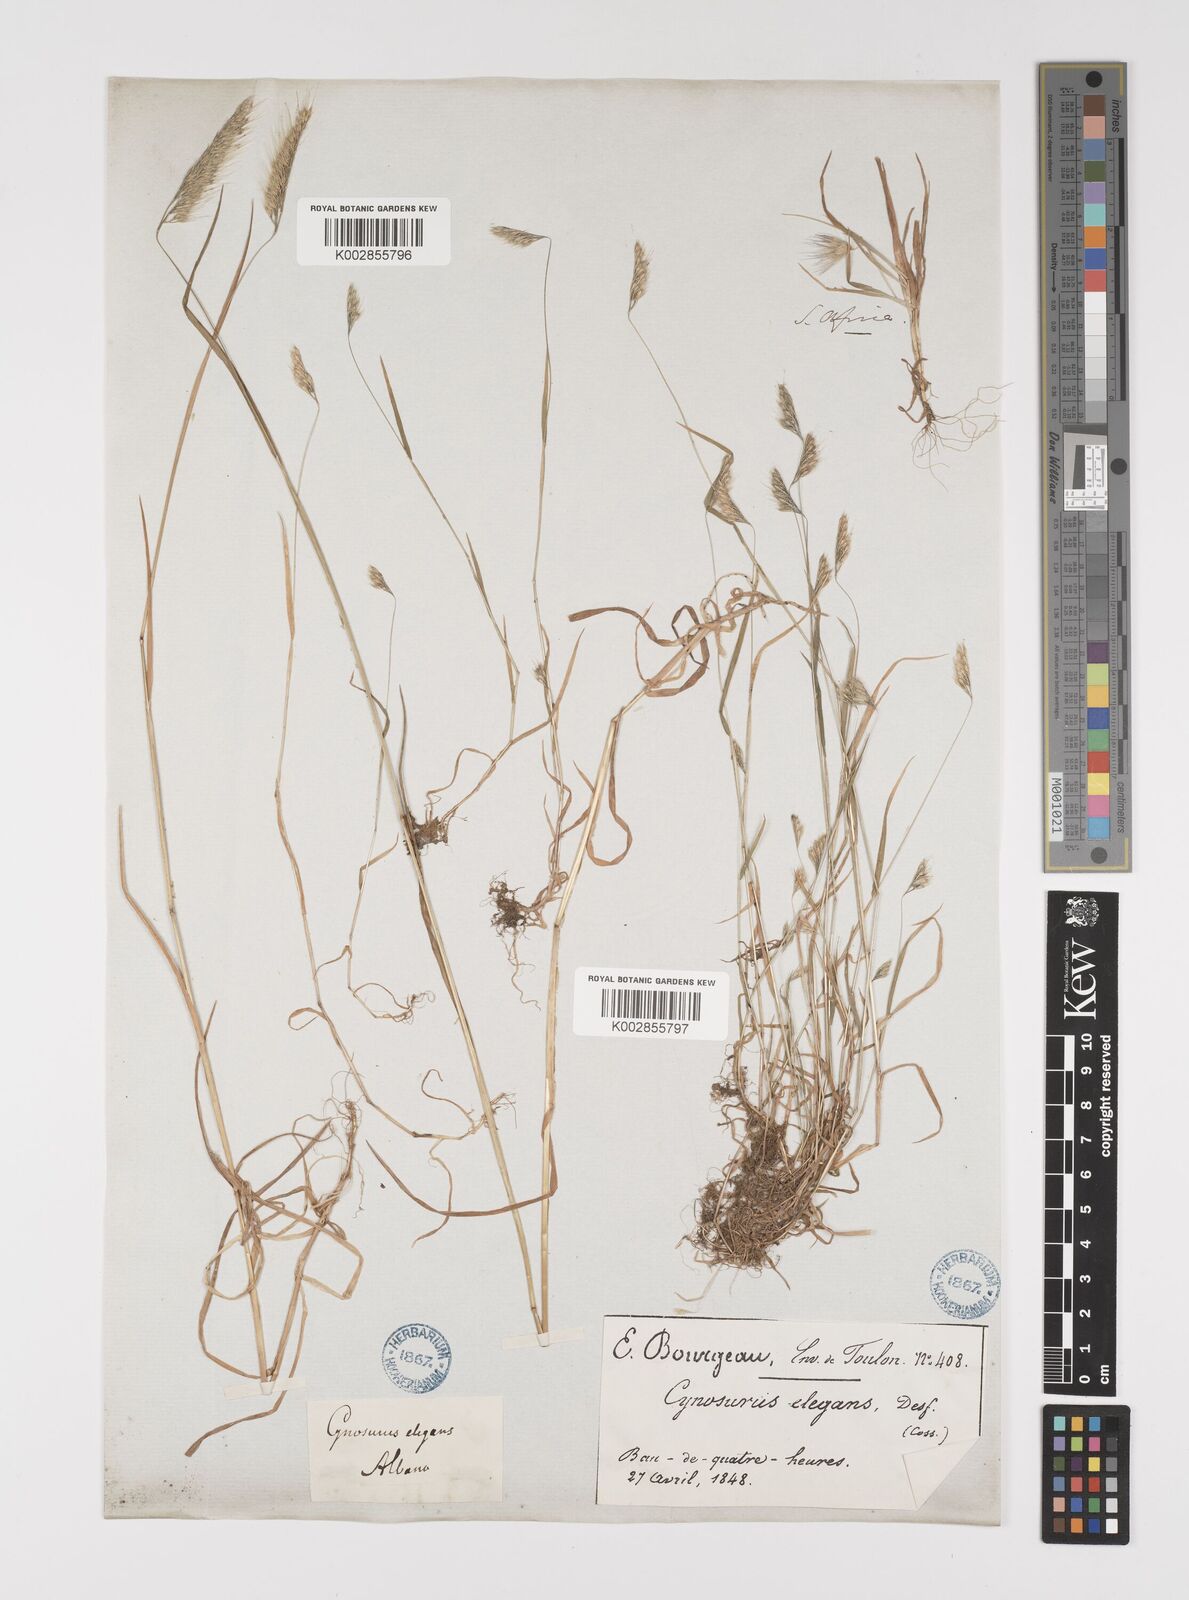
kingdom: Plantae
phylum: Tracheophyta
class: Liliopsida
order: Poales
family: Poaceae
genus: Cynosurus
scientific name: Cynosurus elegans
